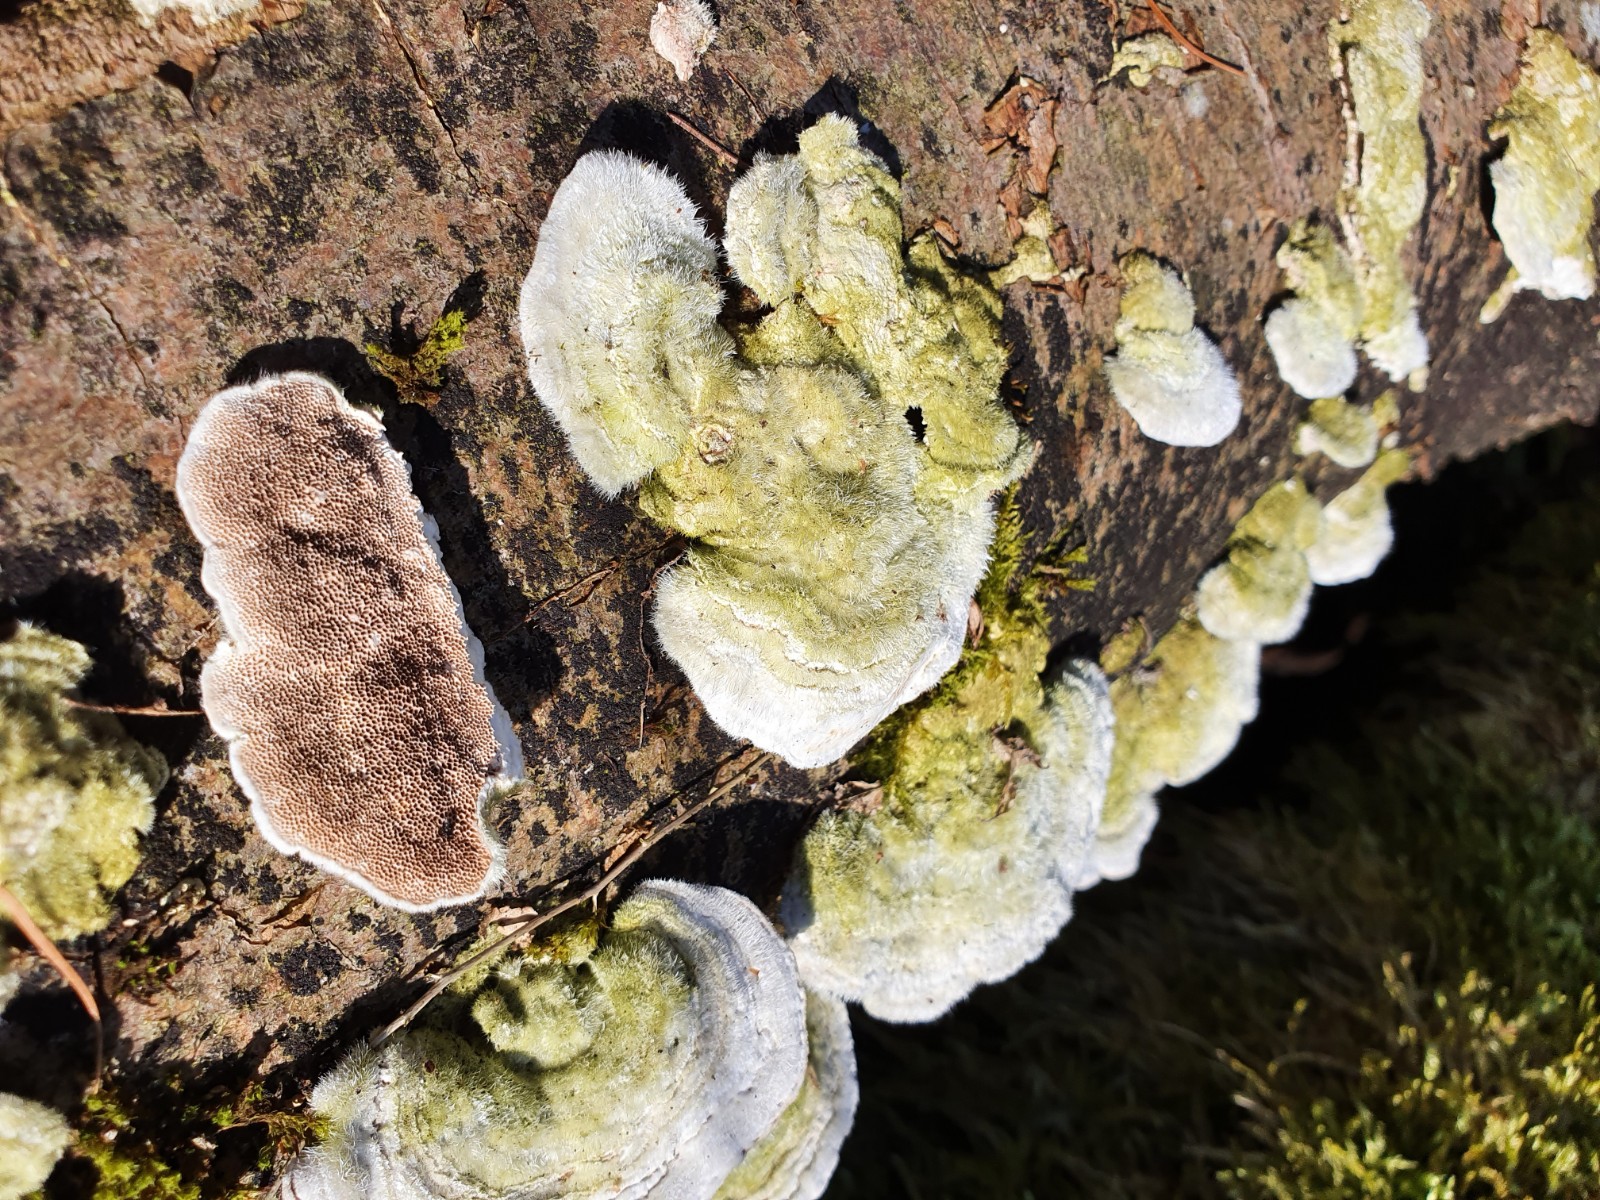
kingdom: Fungi
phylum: Basidiomycota
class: Agaricomycetes
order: Polyporales
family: Polyporaceae
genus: Trametes
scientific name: Trametes hirsuta
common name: håret læderporesvamp
